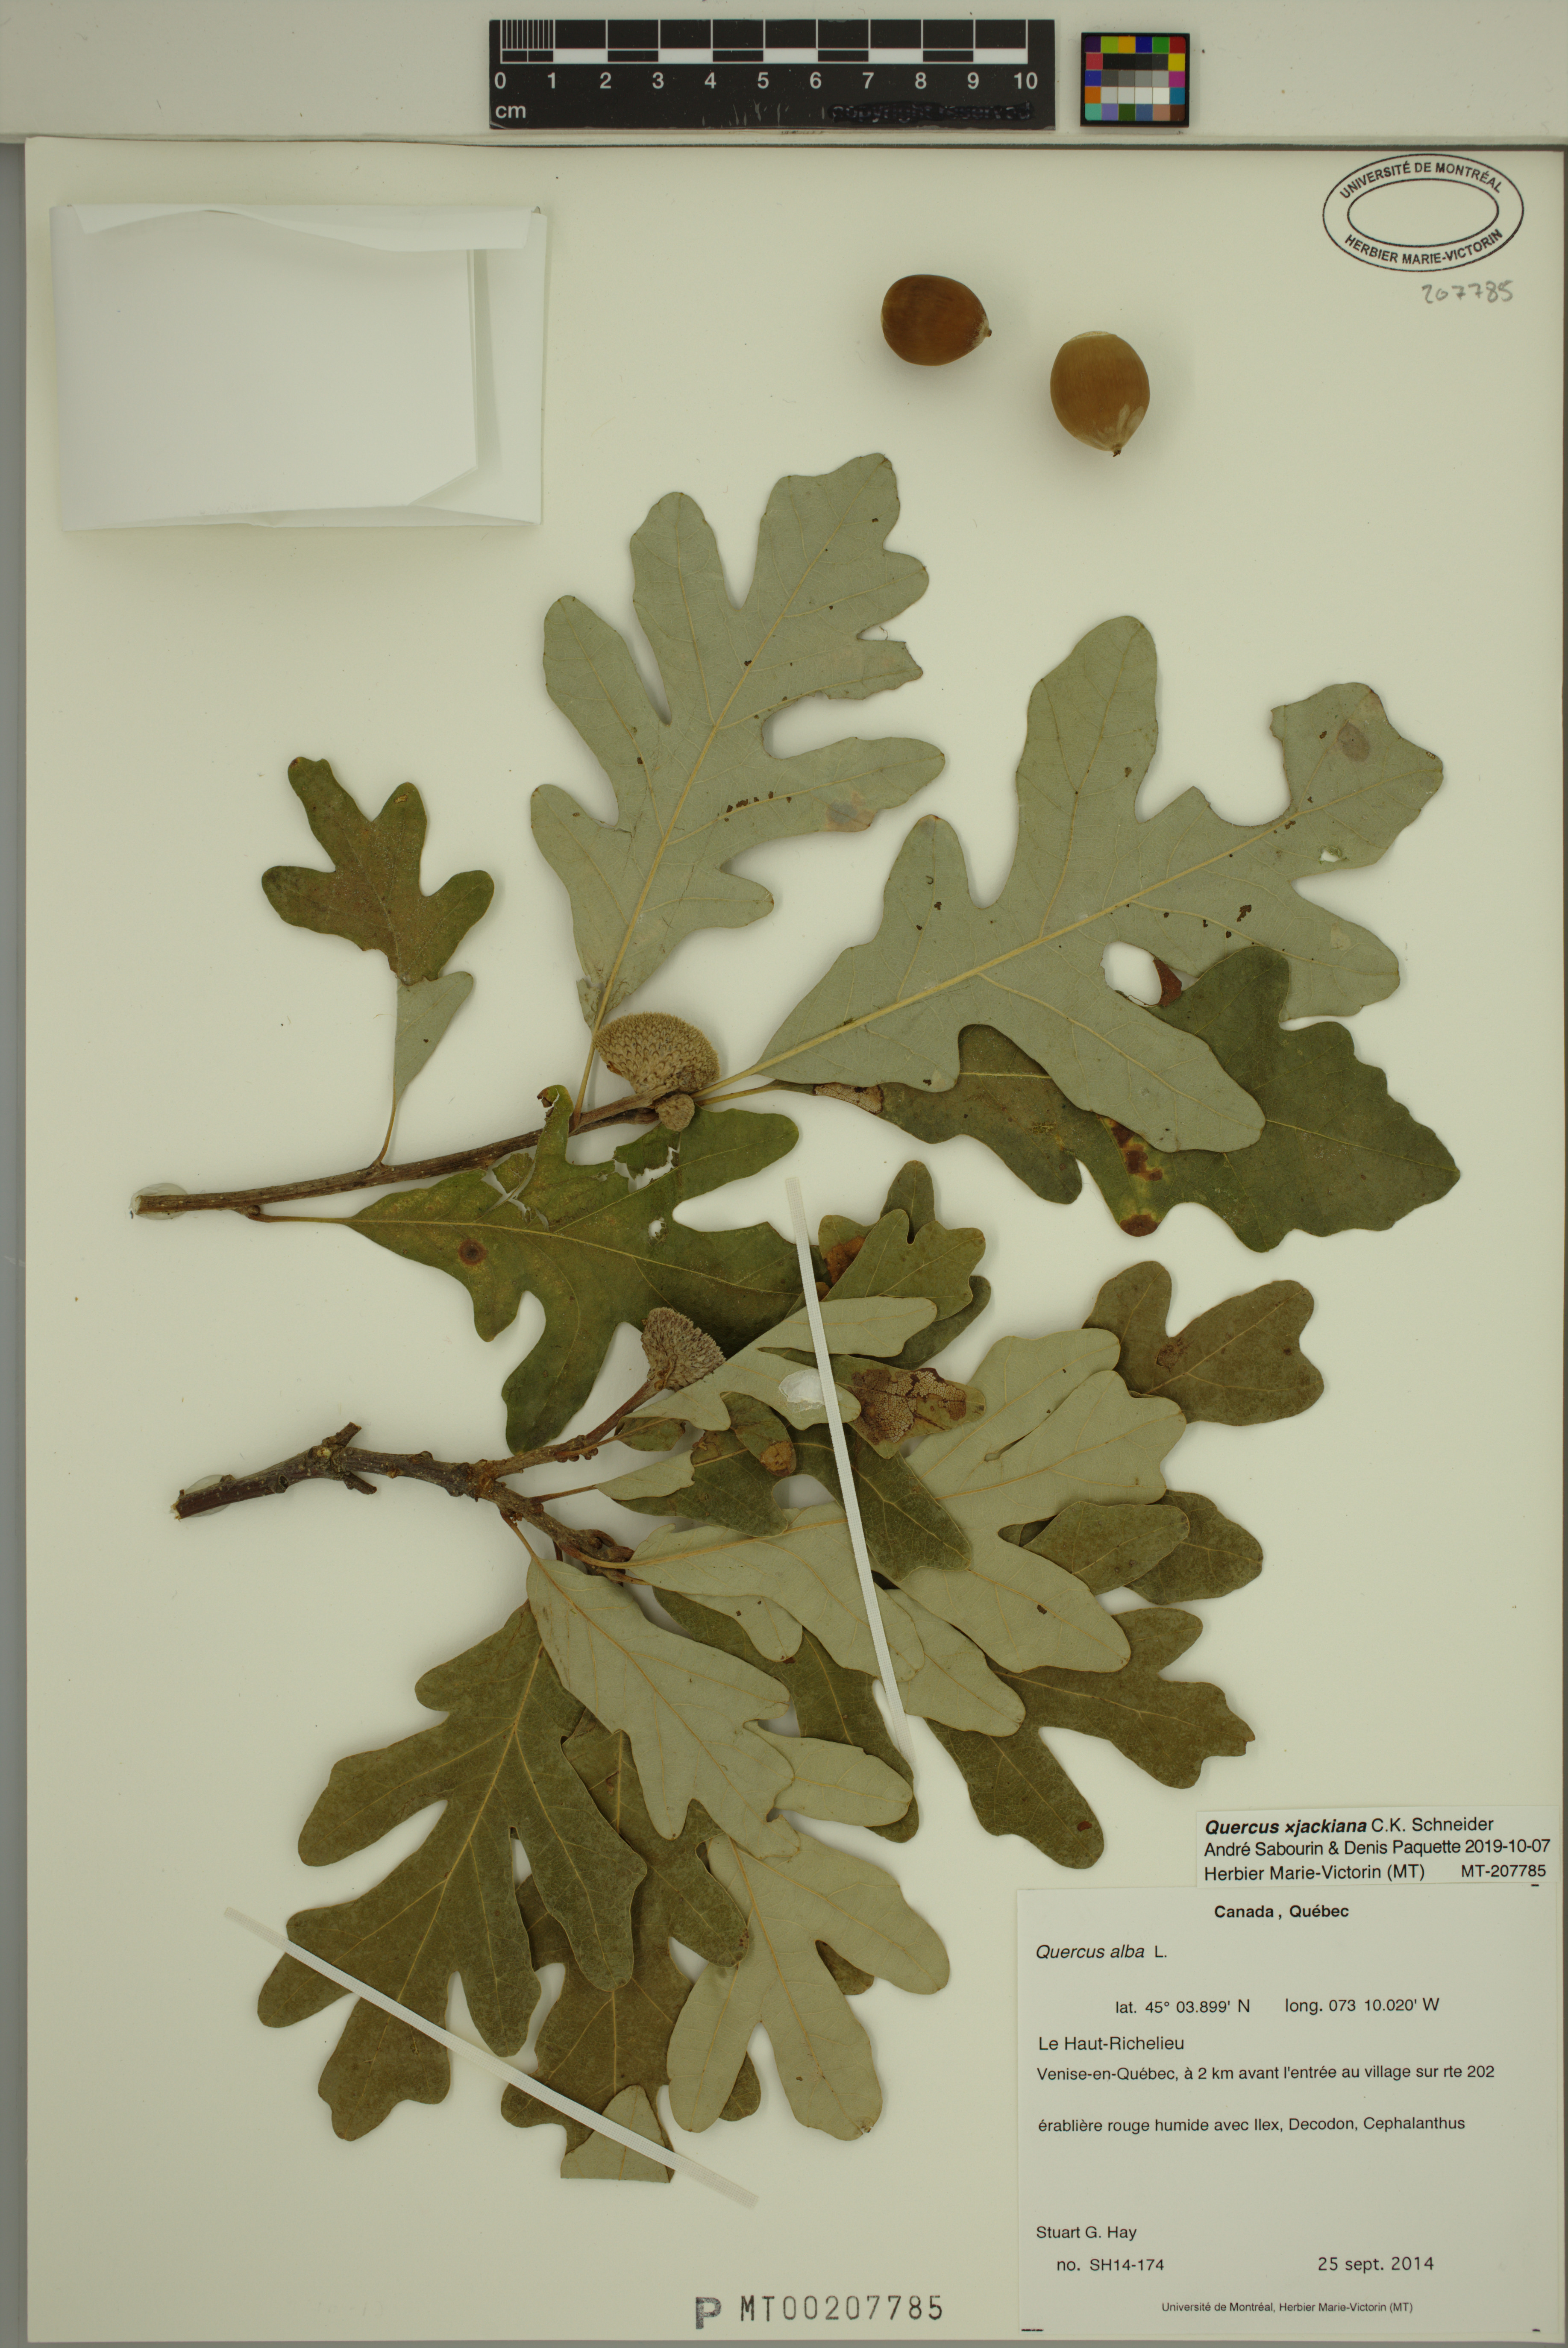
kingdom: Plantae
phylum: Tracheophyta
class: Magnoliopsida
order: Fagales
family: Fagaceae
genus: Quercus
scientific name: Quercus jackiana
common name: Jack's oak
